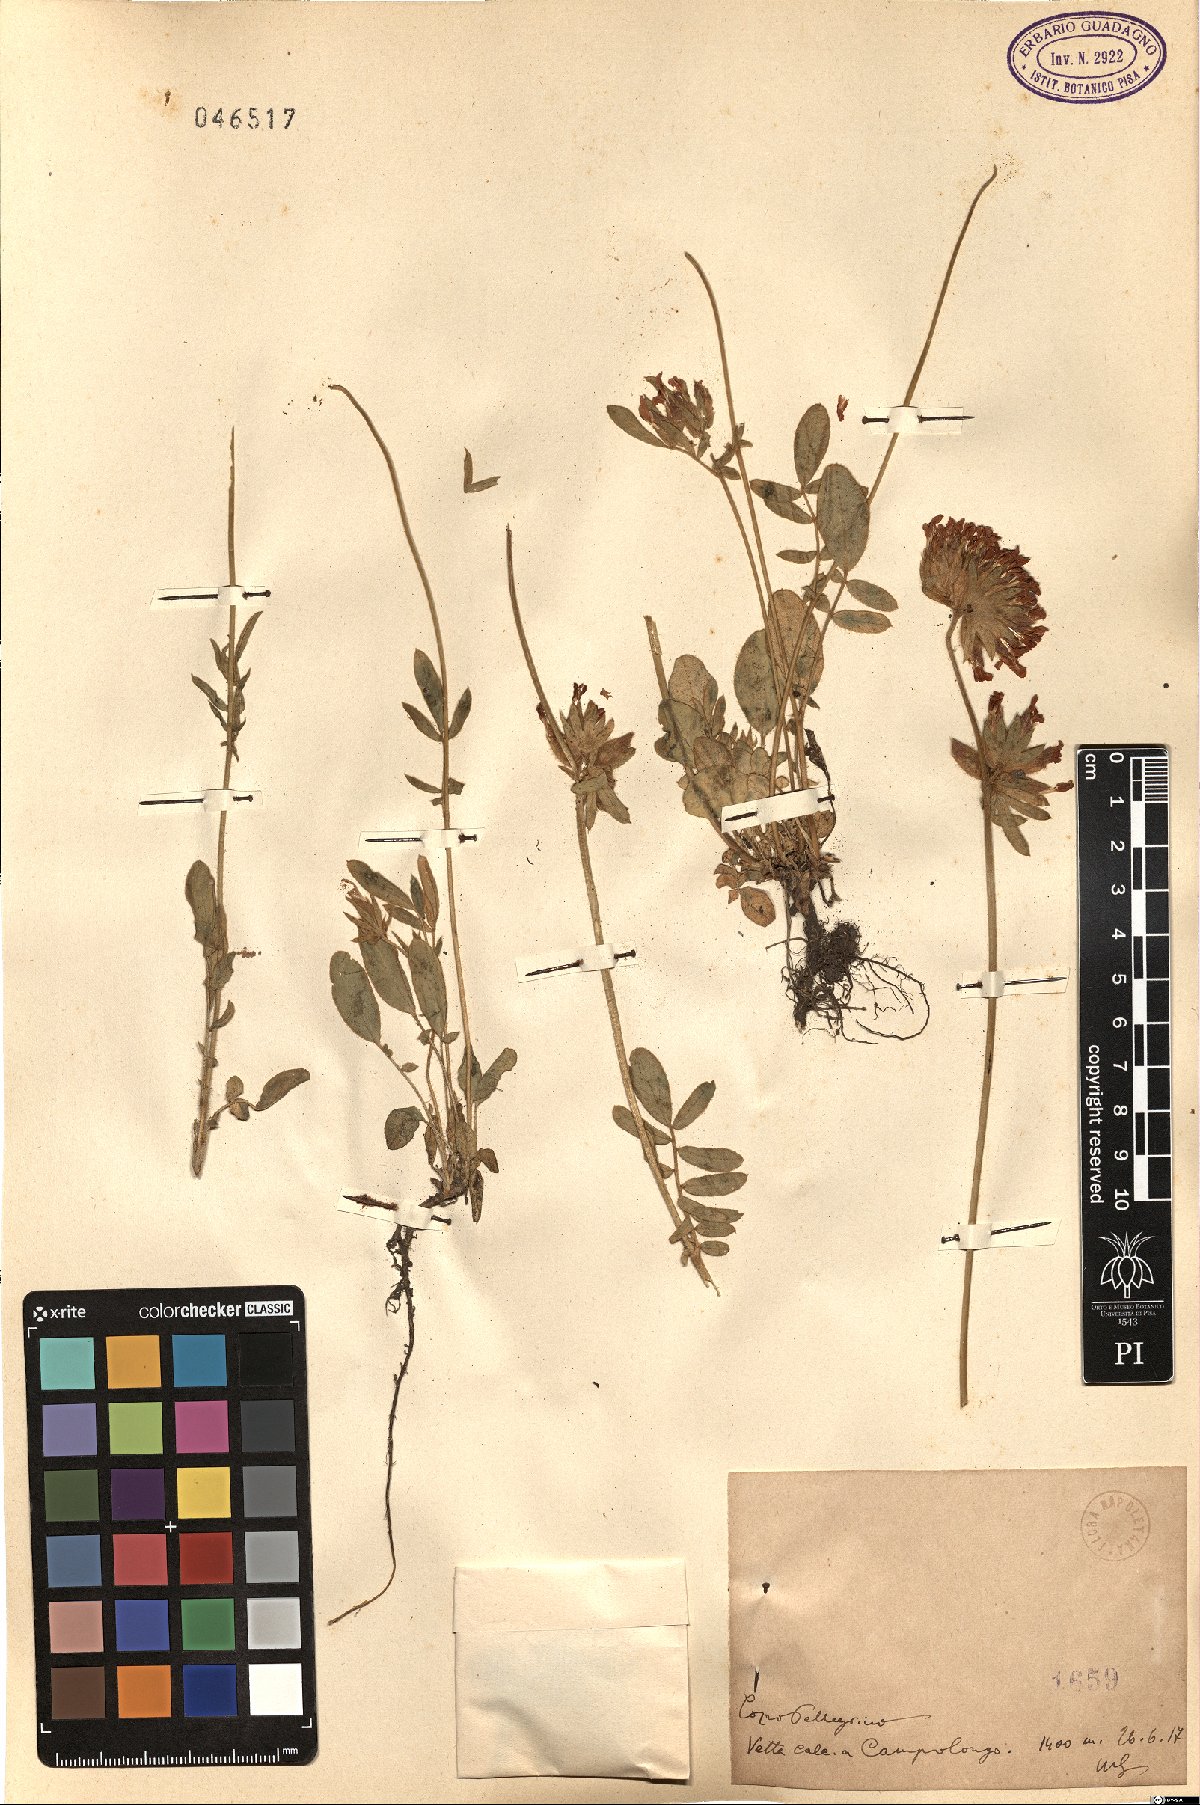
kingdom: Plantae
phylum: Tracheophyta
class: Magnoliopsida
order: Fabales
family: Fabaceae
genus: Anthyllis
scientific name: Anthyllis
